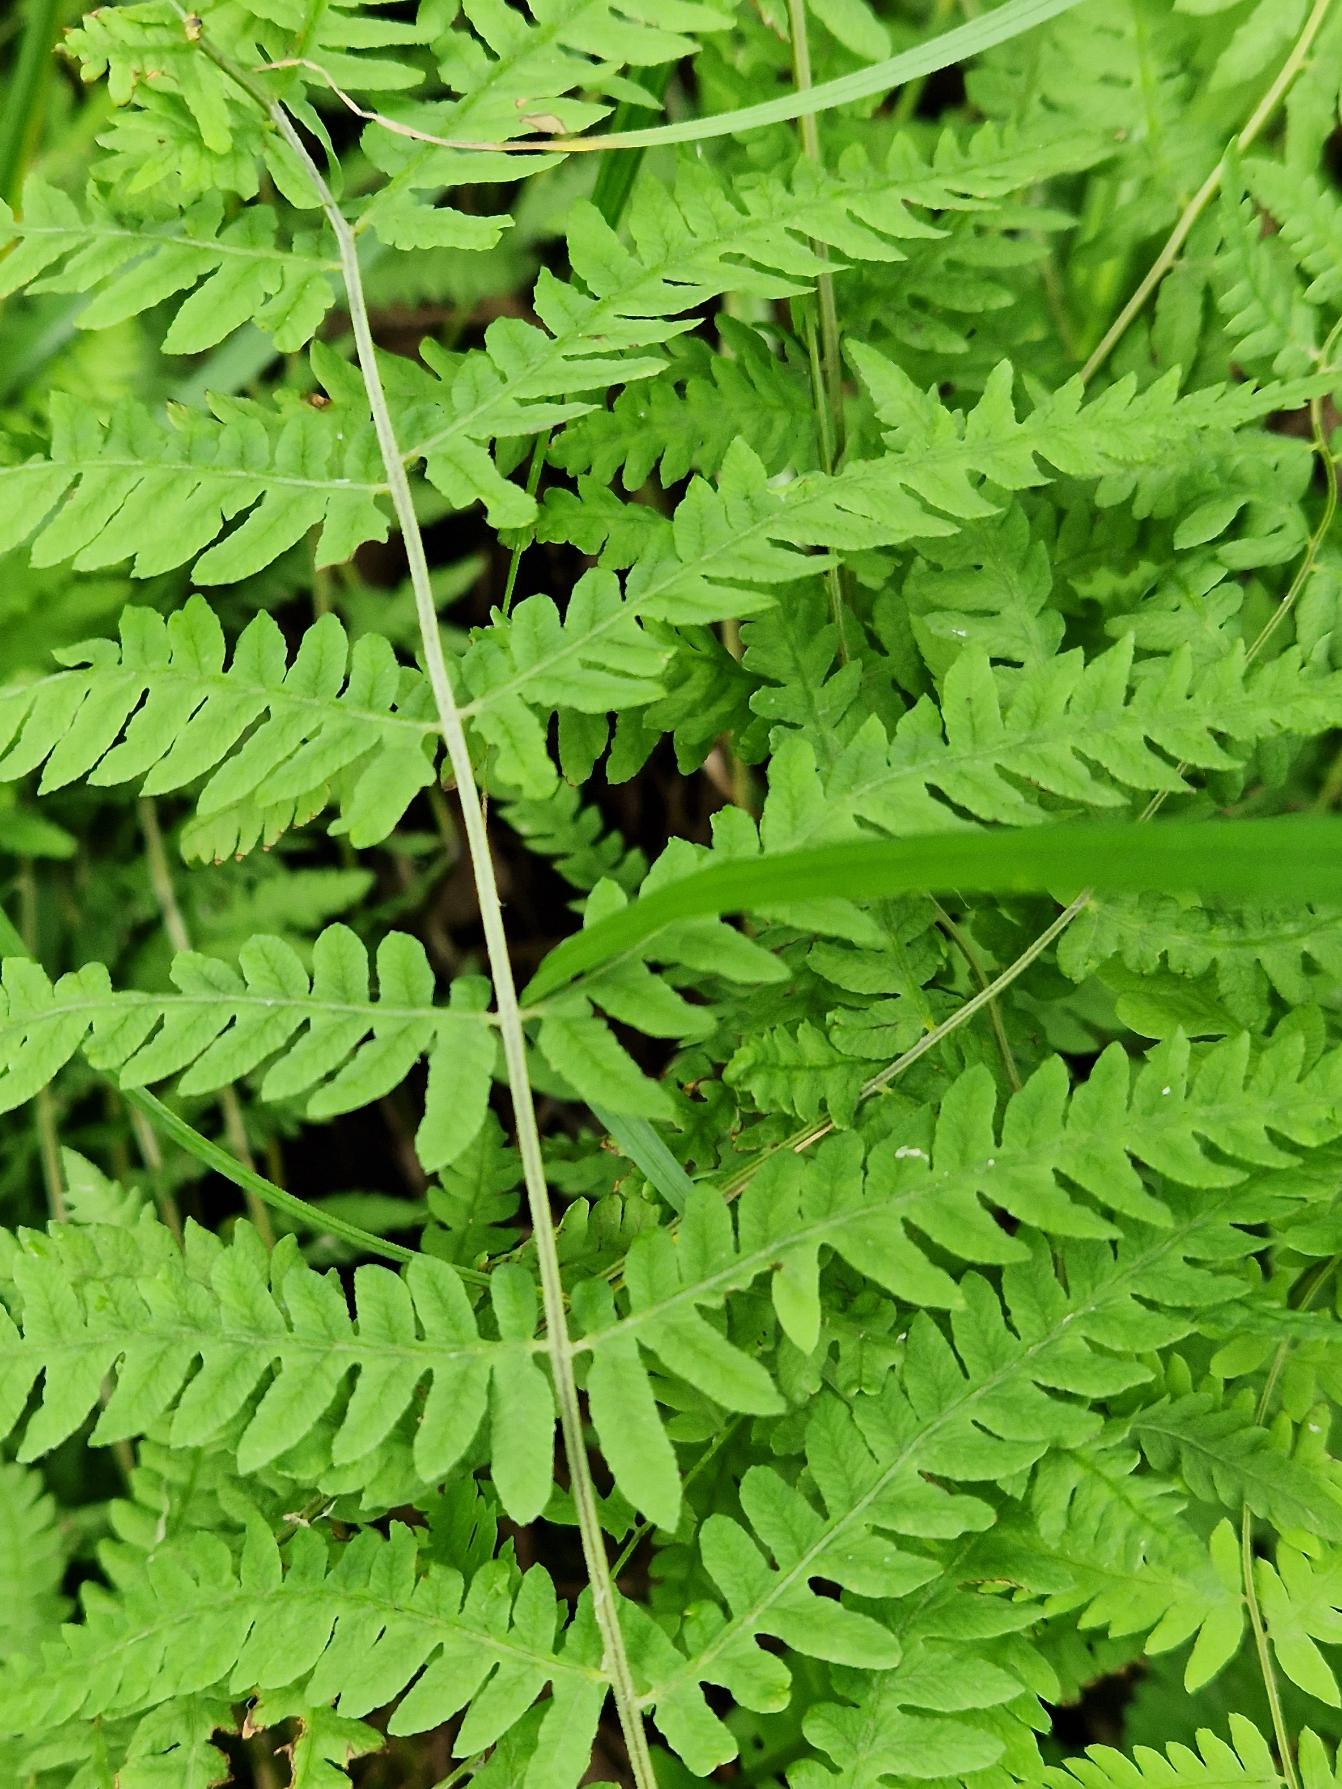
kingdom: Plantae
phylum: Tracheophyta
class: Polypodiopsida
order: Polypodiales
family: Thelypteridaceae
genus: Thelypteris
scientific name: Thelypteris palustris
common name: Kærmangeløv
